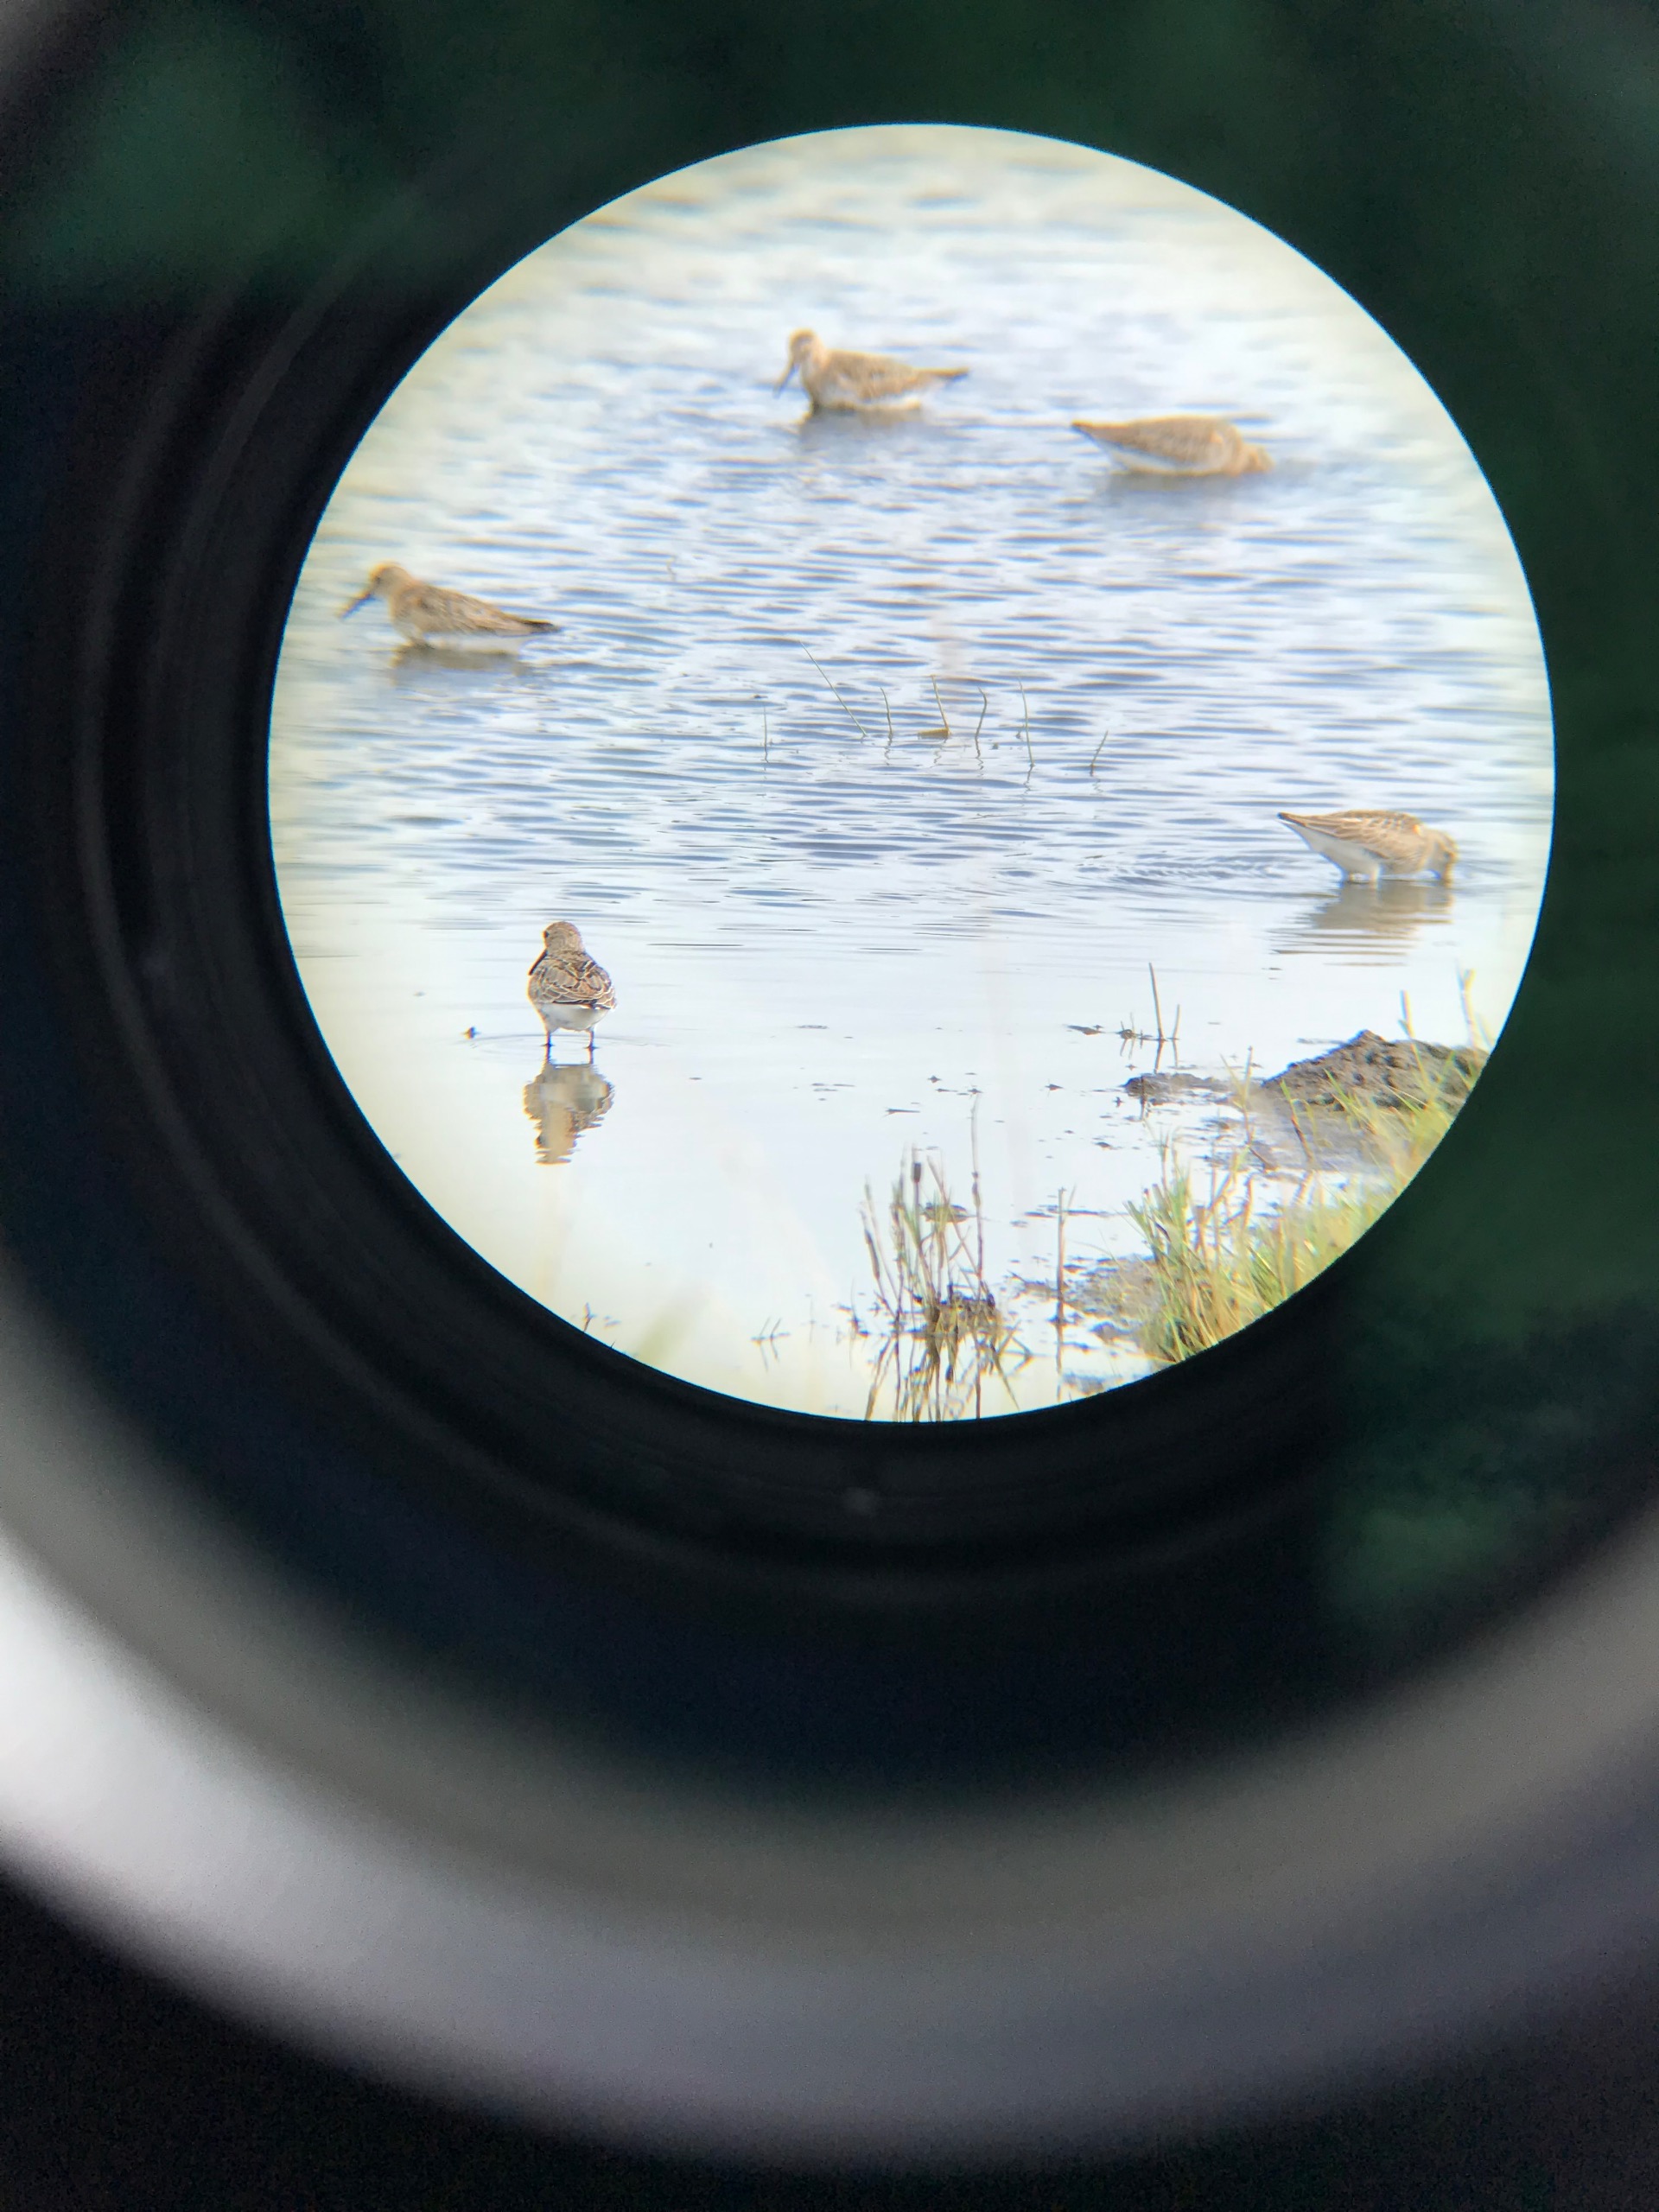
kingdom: Animalia
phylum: Chordata
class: Aves
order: Charadriiformes
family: Scolopacidae
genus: Calidris
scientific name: Calidris alpina
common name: Almindelig ryle
